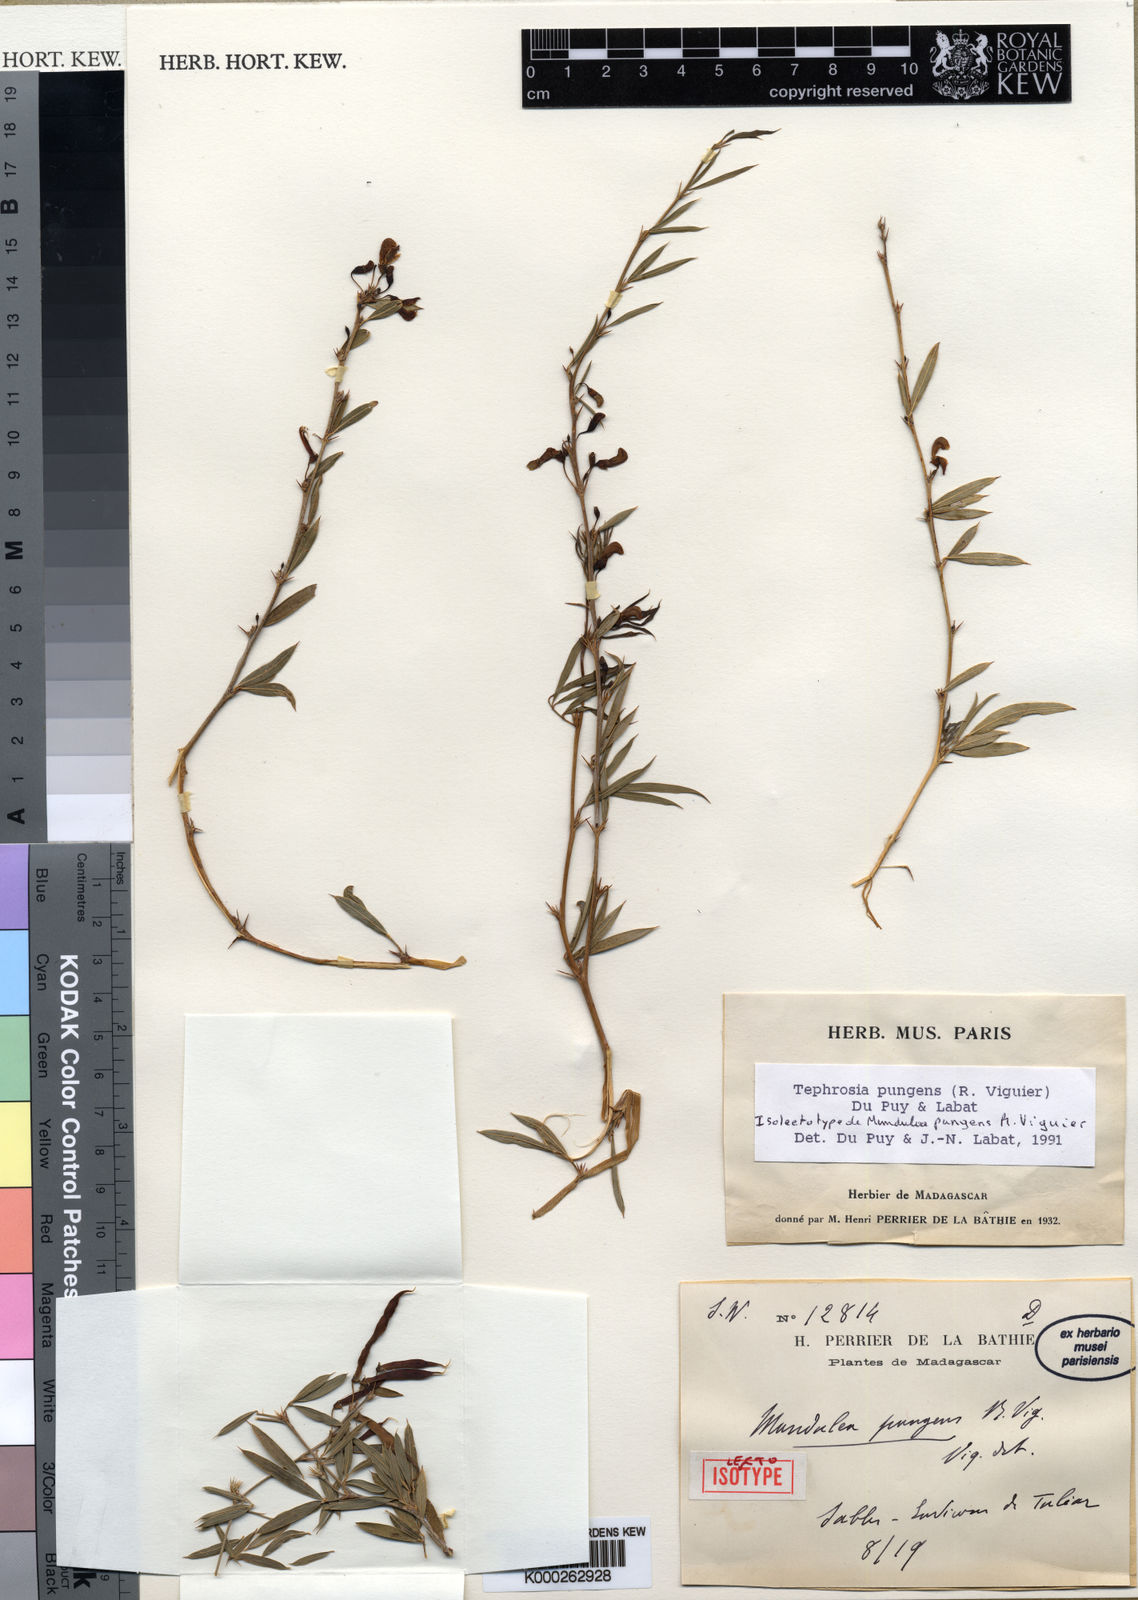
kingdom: Plantae
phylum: Tracheophyta
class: Magnoliopsida
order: Fabales
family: Fabaceae
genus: Tephrosia
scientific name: Tephrosia pungens
